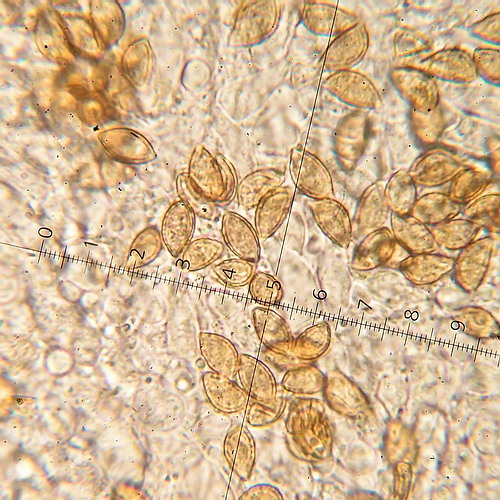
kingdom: Fungi
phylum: Basidiomycota
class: Agaricomycetes
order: Agaricales
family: Hymenogastraceae
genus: Hebeloma
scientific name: Hebeloma sacchariolens
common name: sødtduftende tåreblad
